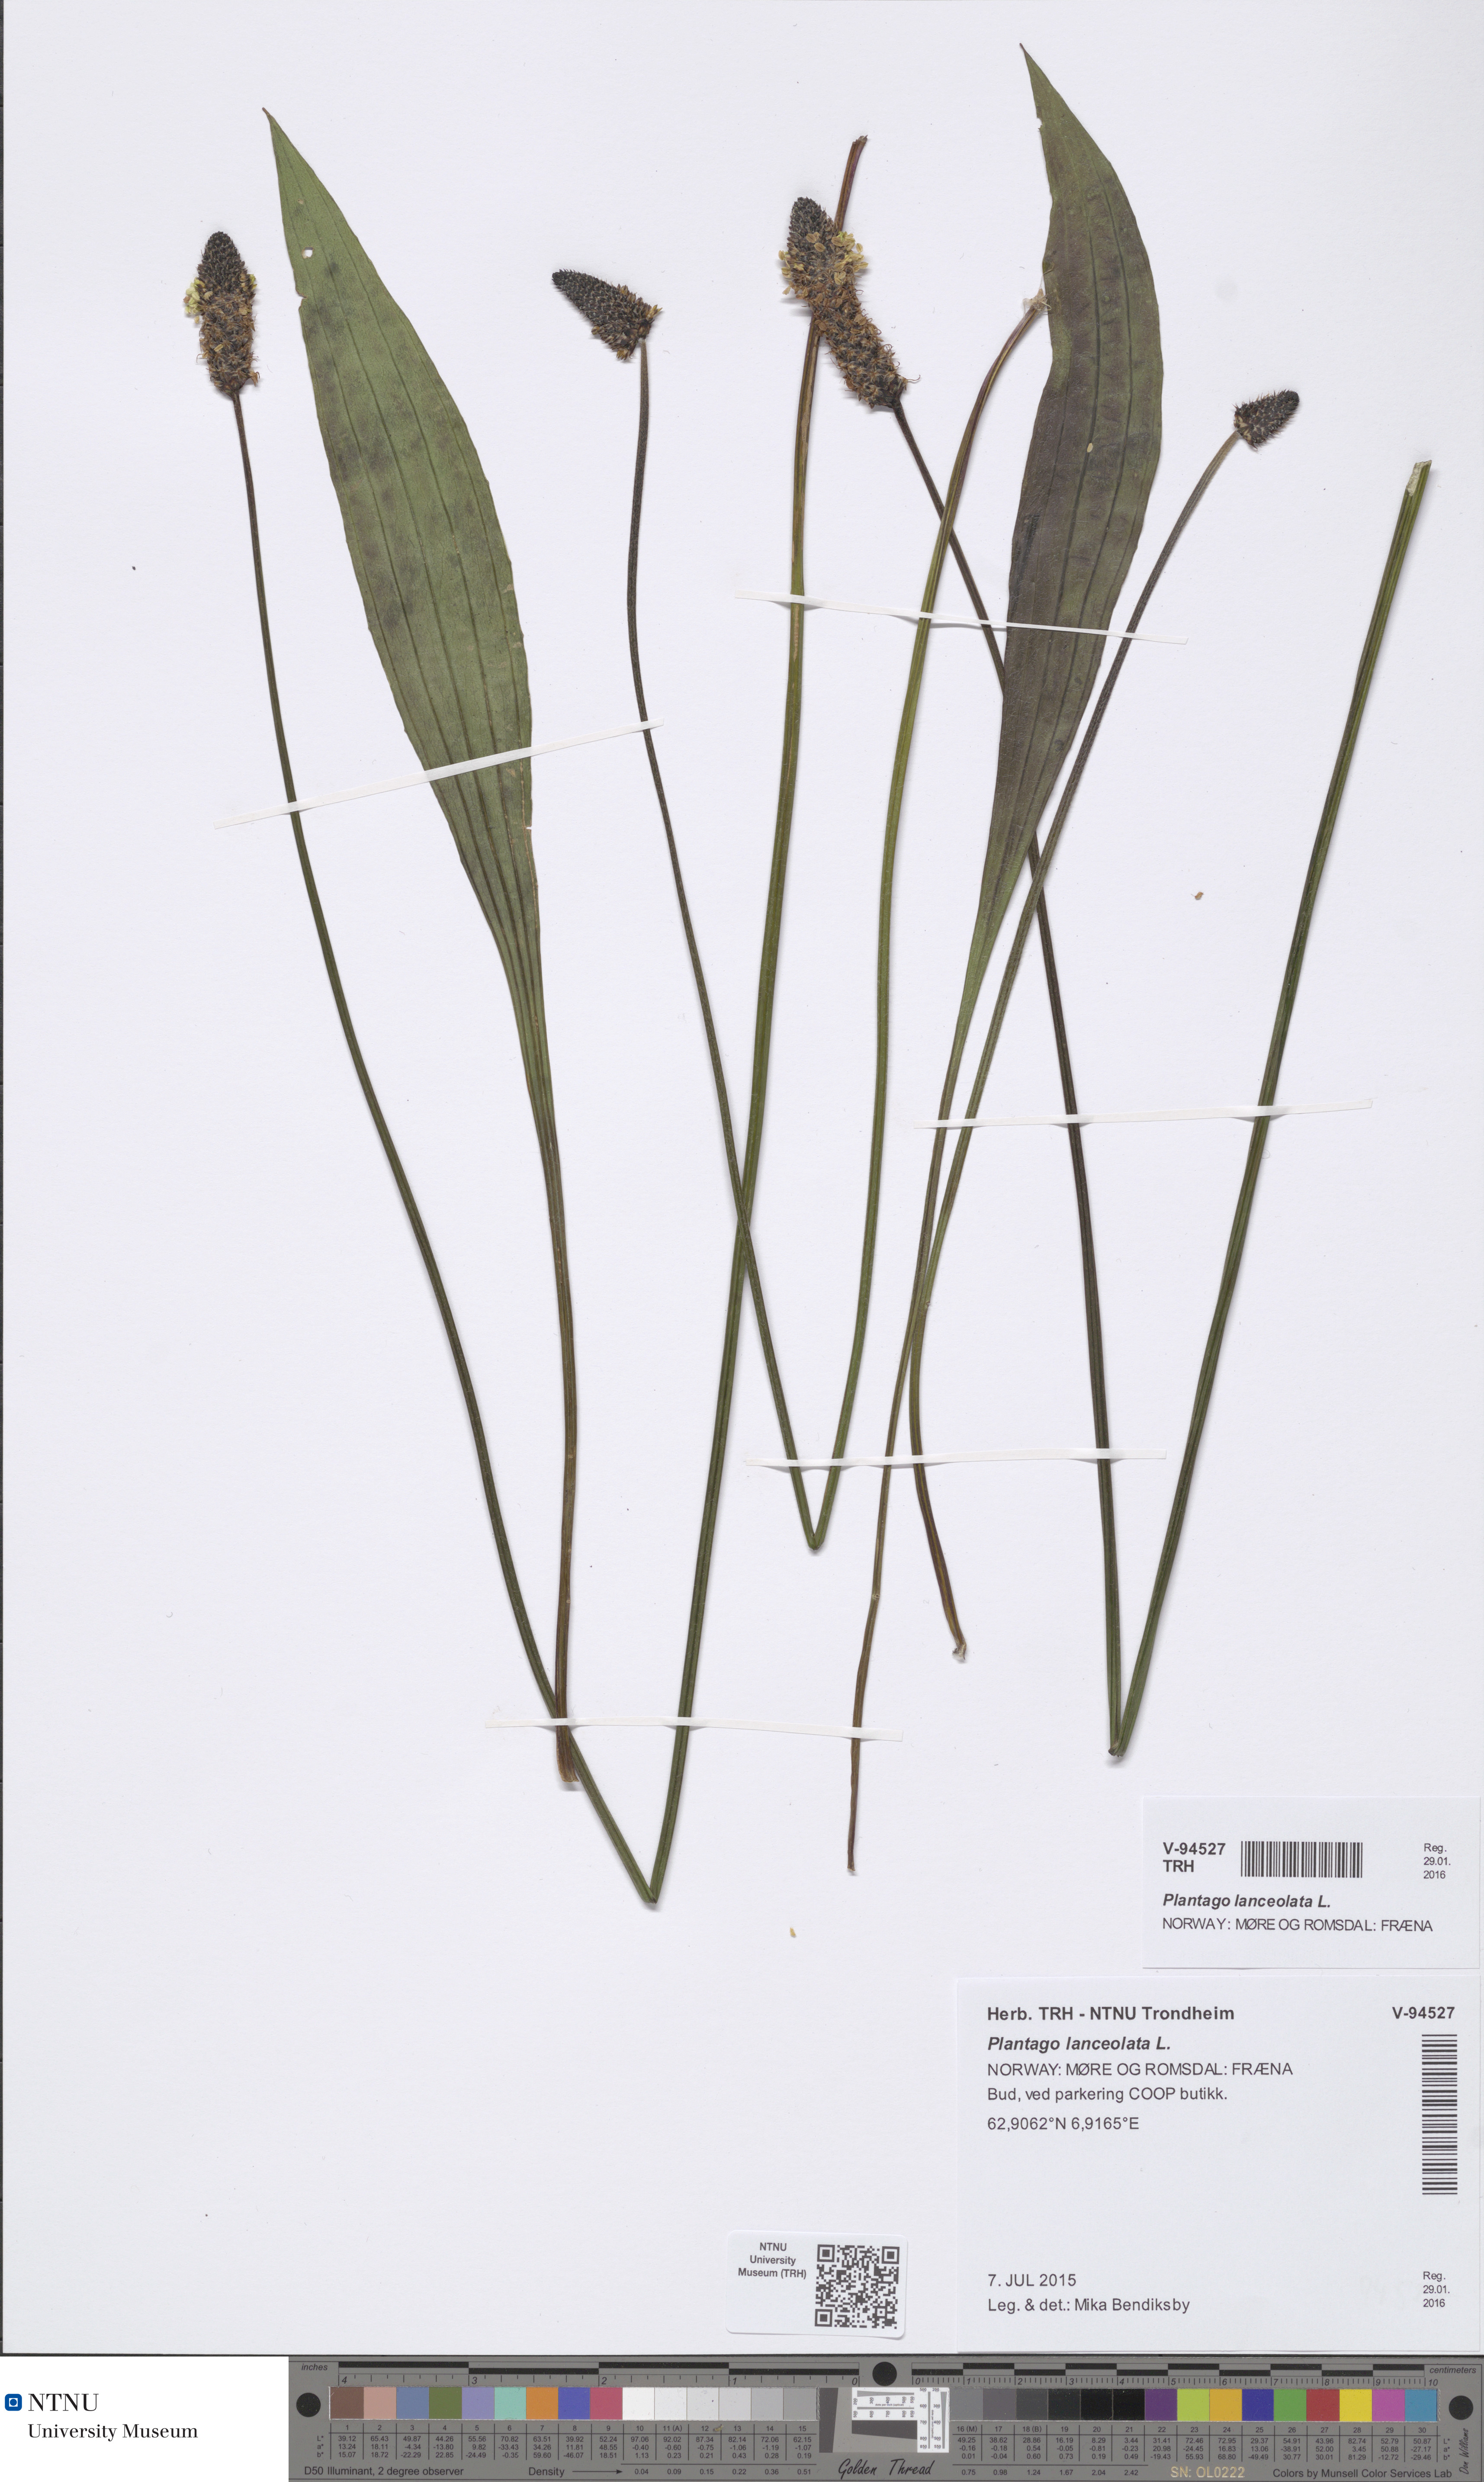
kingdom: Plantae
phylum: Tracheophyta
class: Magnoliopsida
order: Lamiales
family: Plantaginaceae
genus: Plantago
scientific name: Plantago lanceolata
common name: Ribwort plantain
